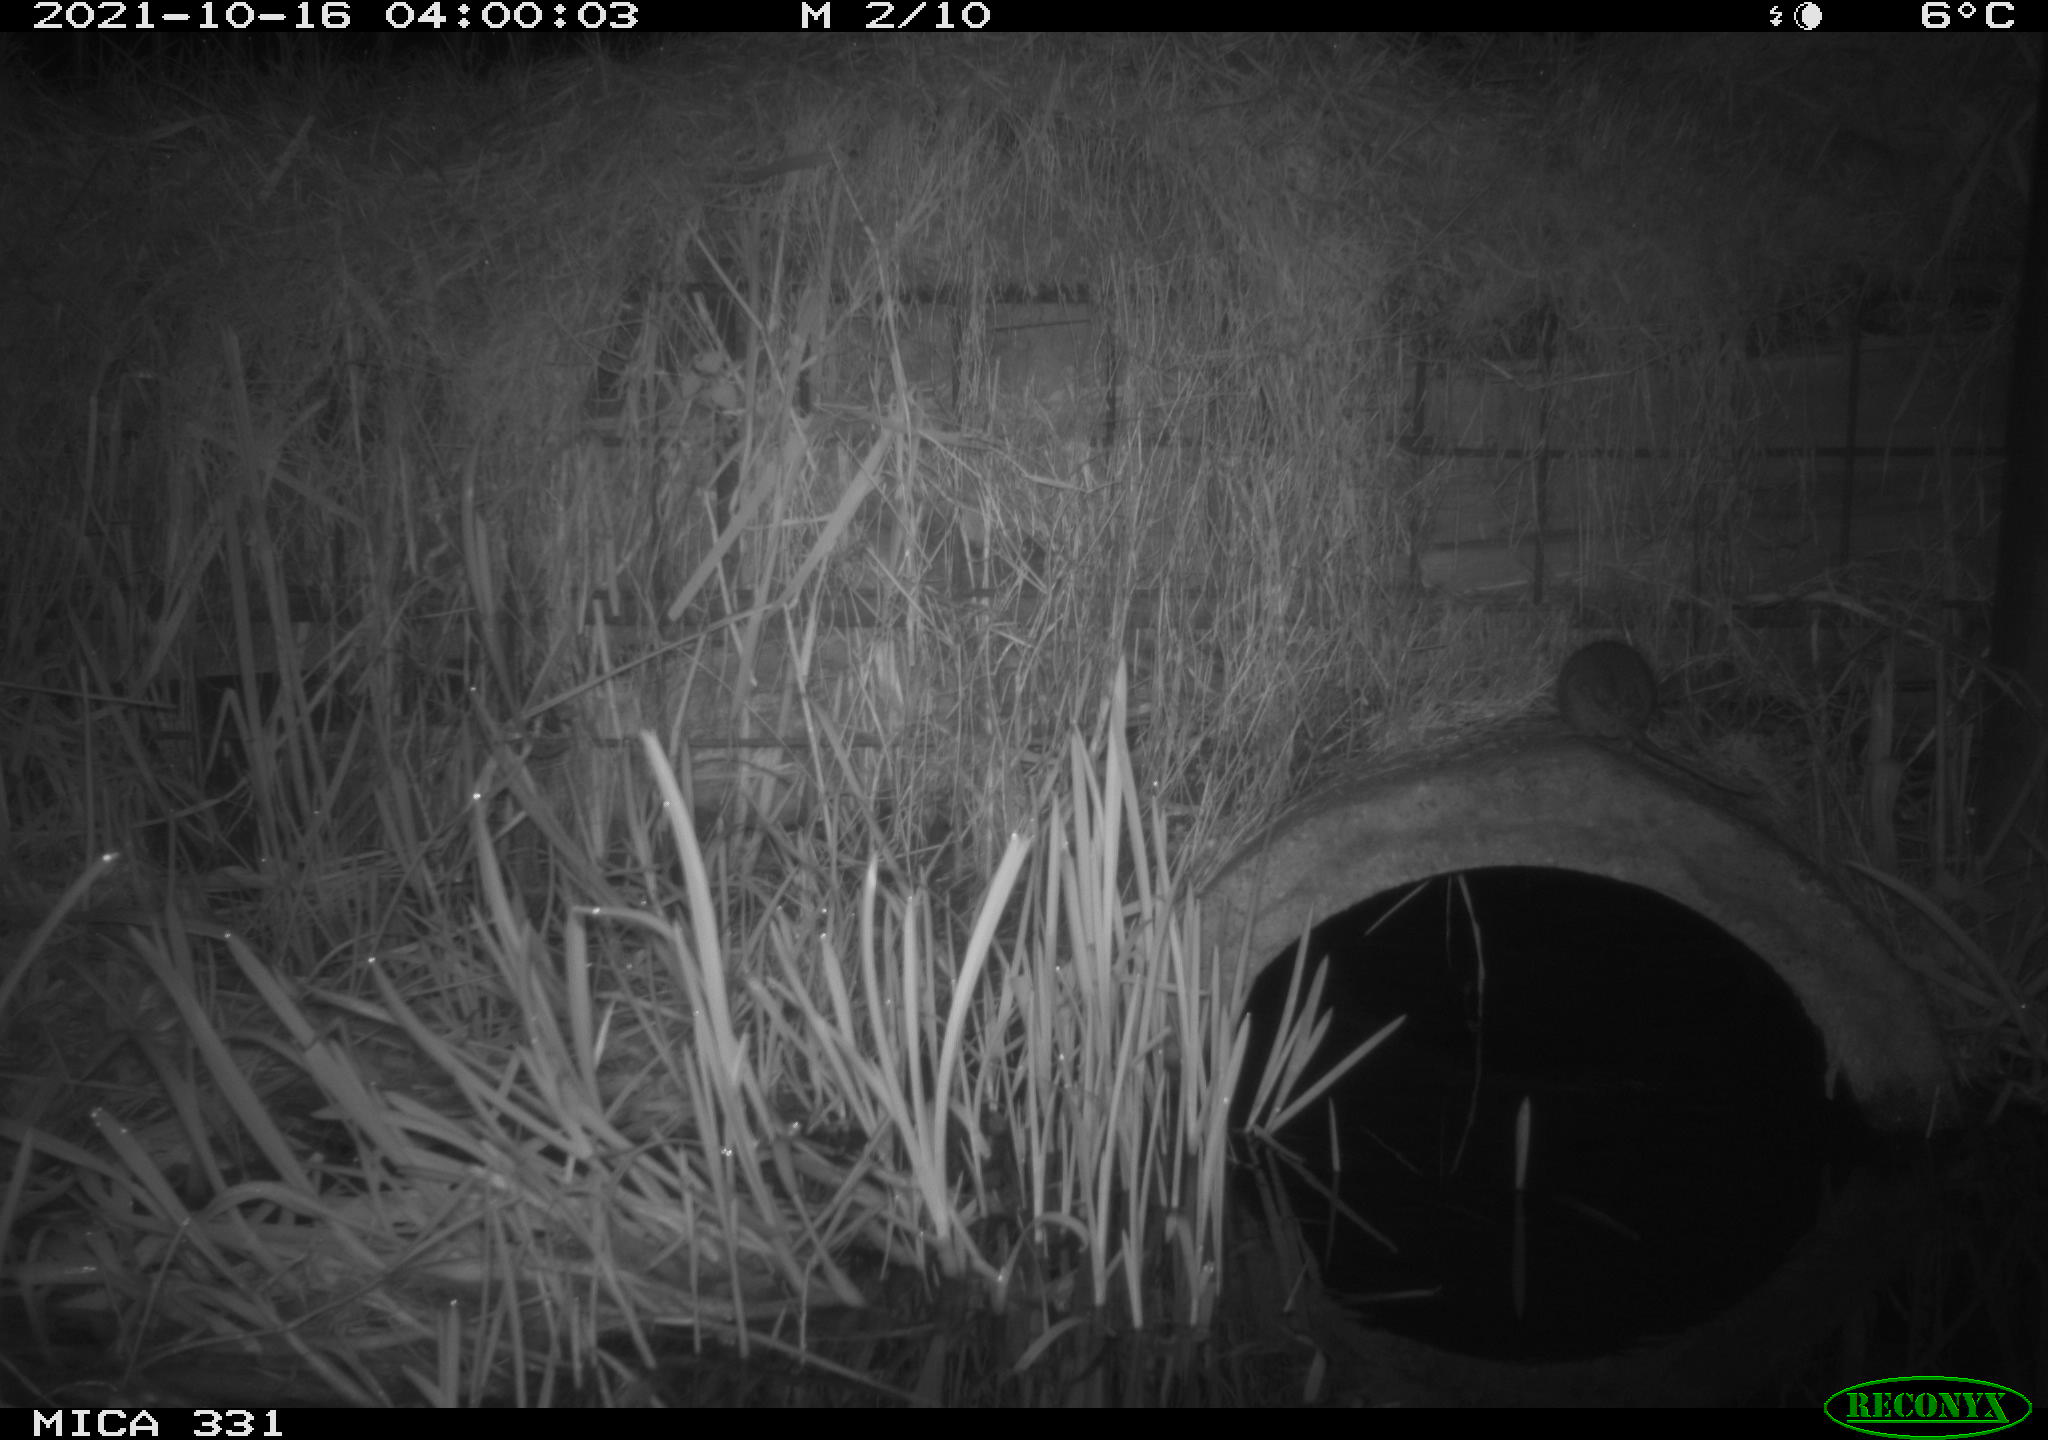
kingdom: Animalia
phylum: Chordata
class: Mammalia
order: Rodentia
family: Muridae
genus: Rattus
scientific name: Rattus norvegicus
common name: Brown rat
